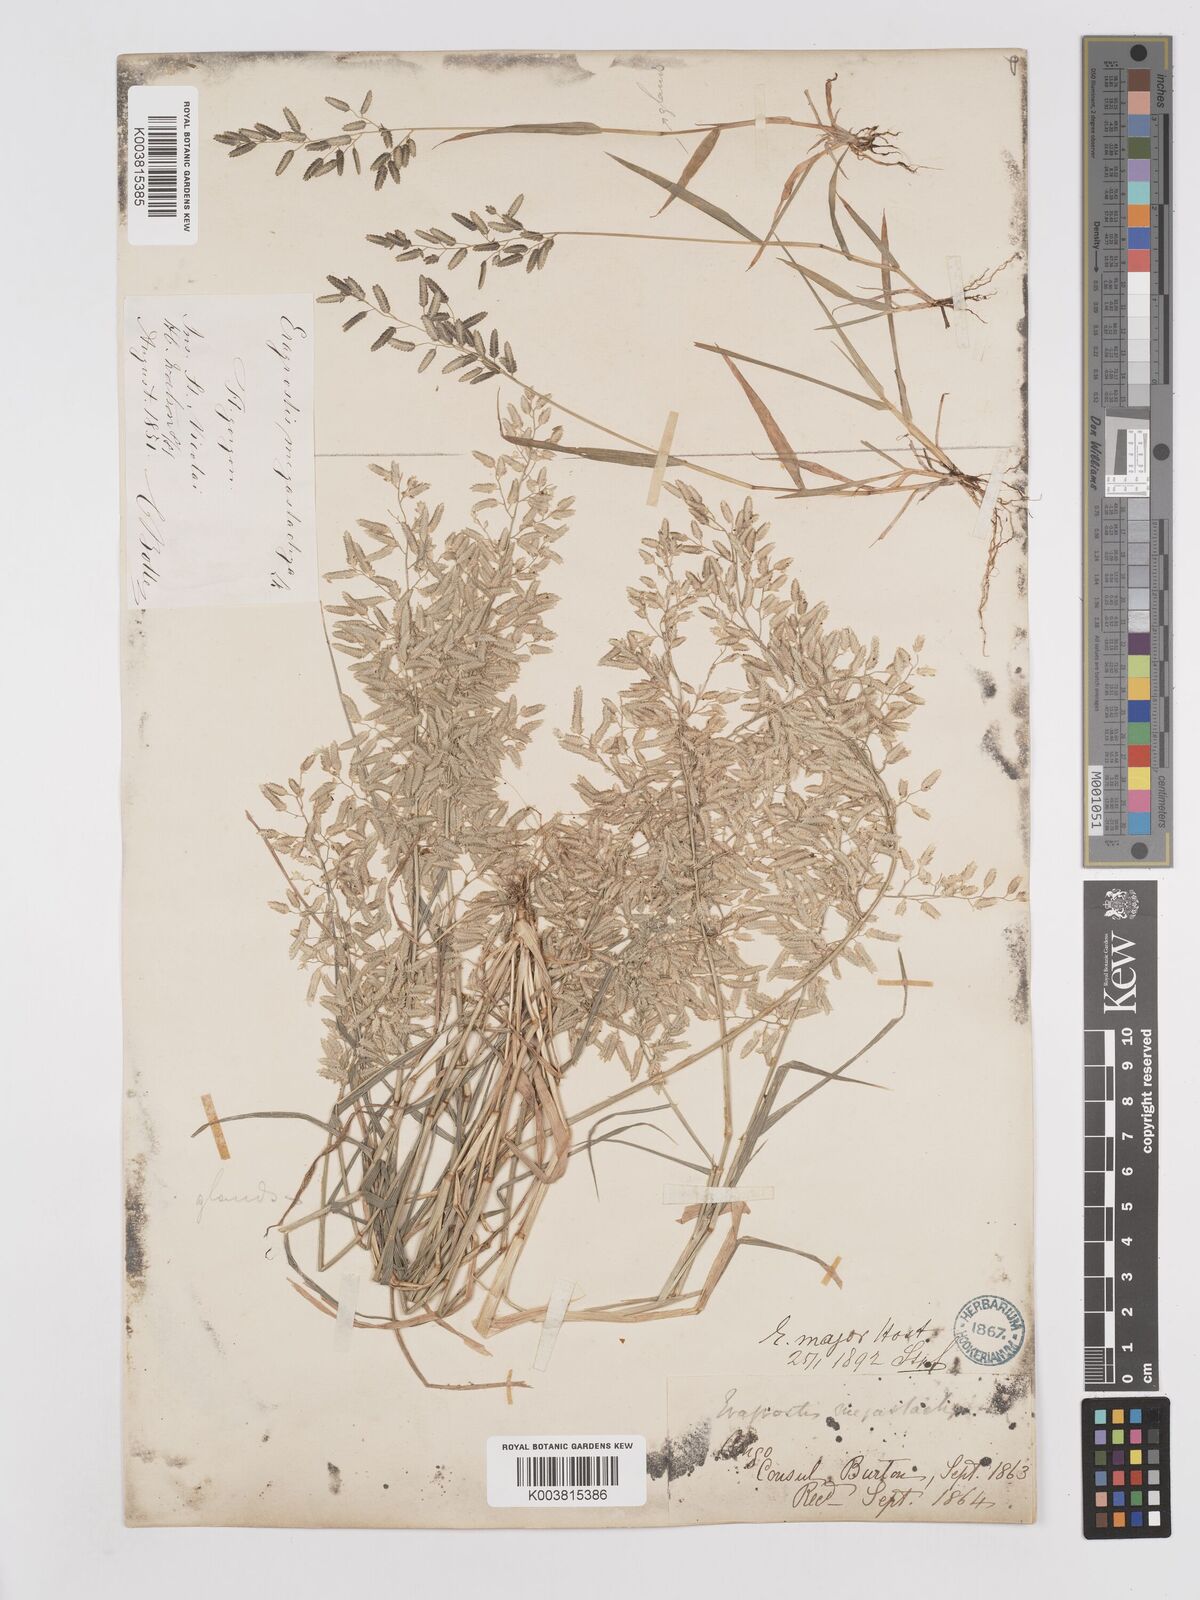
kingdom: Plantae
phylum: Tracheophyta
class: Liliopsida
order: Poales
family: Poaceae
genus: Eragrostis
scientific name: Eragrostis cilianensis
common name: Stinkgrass
